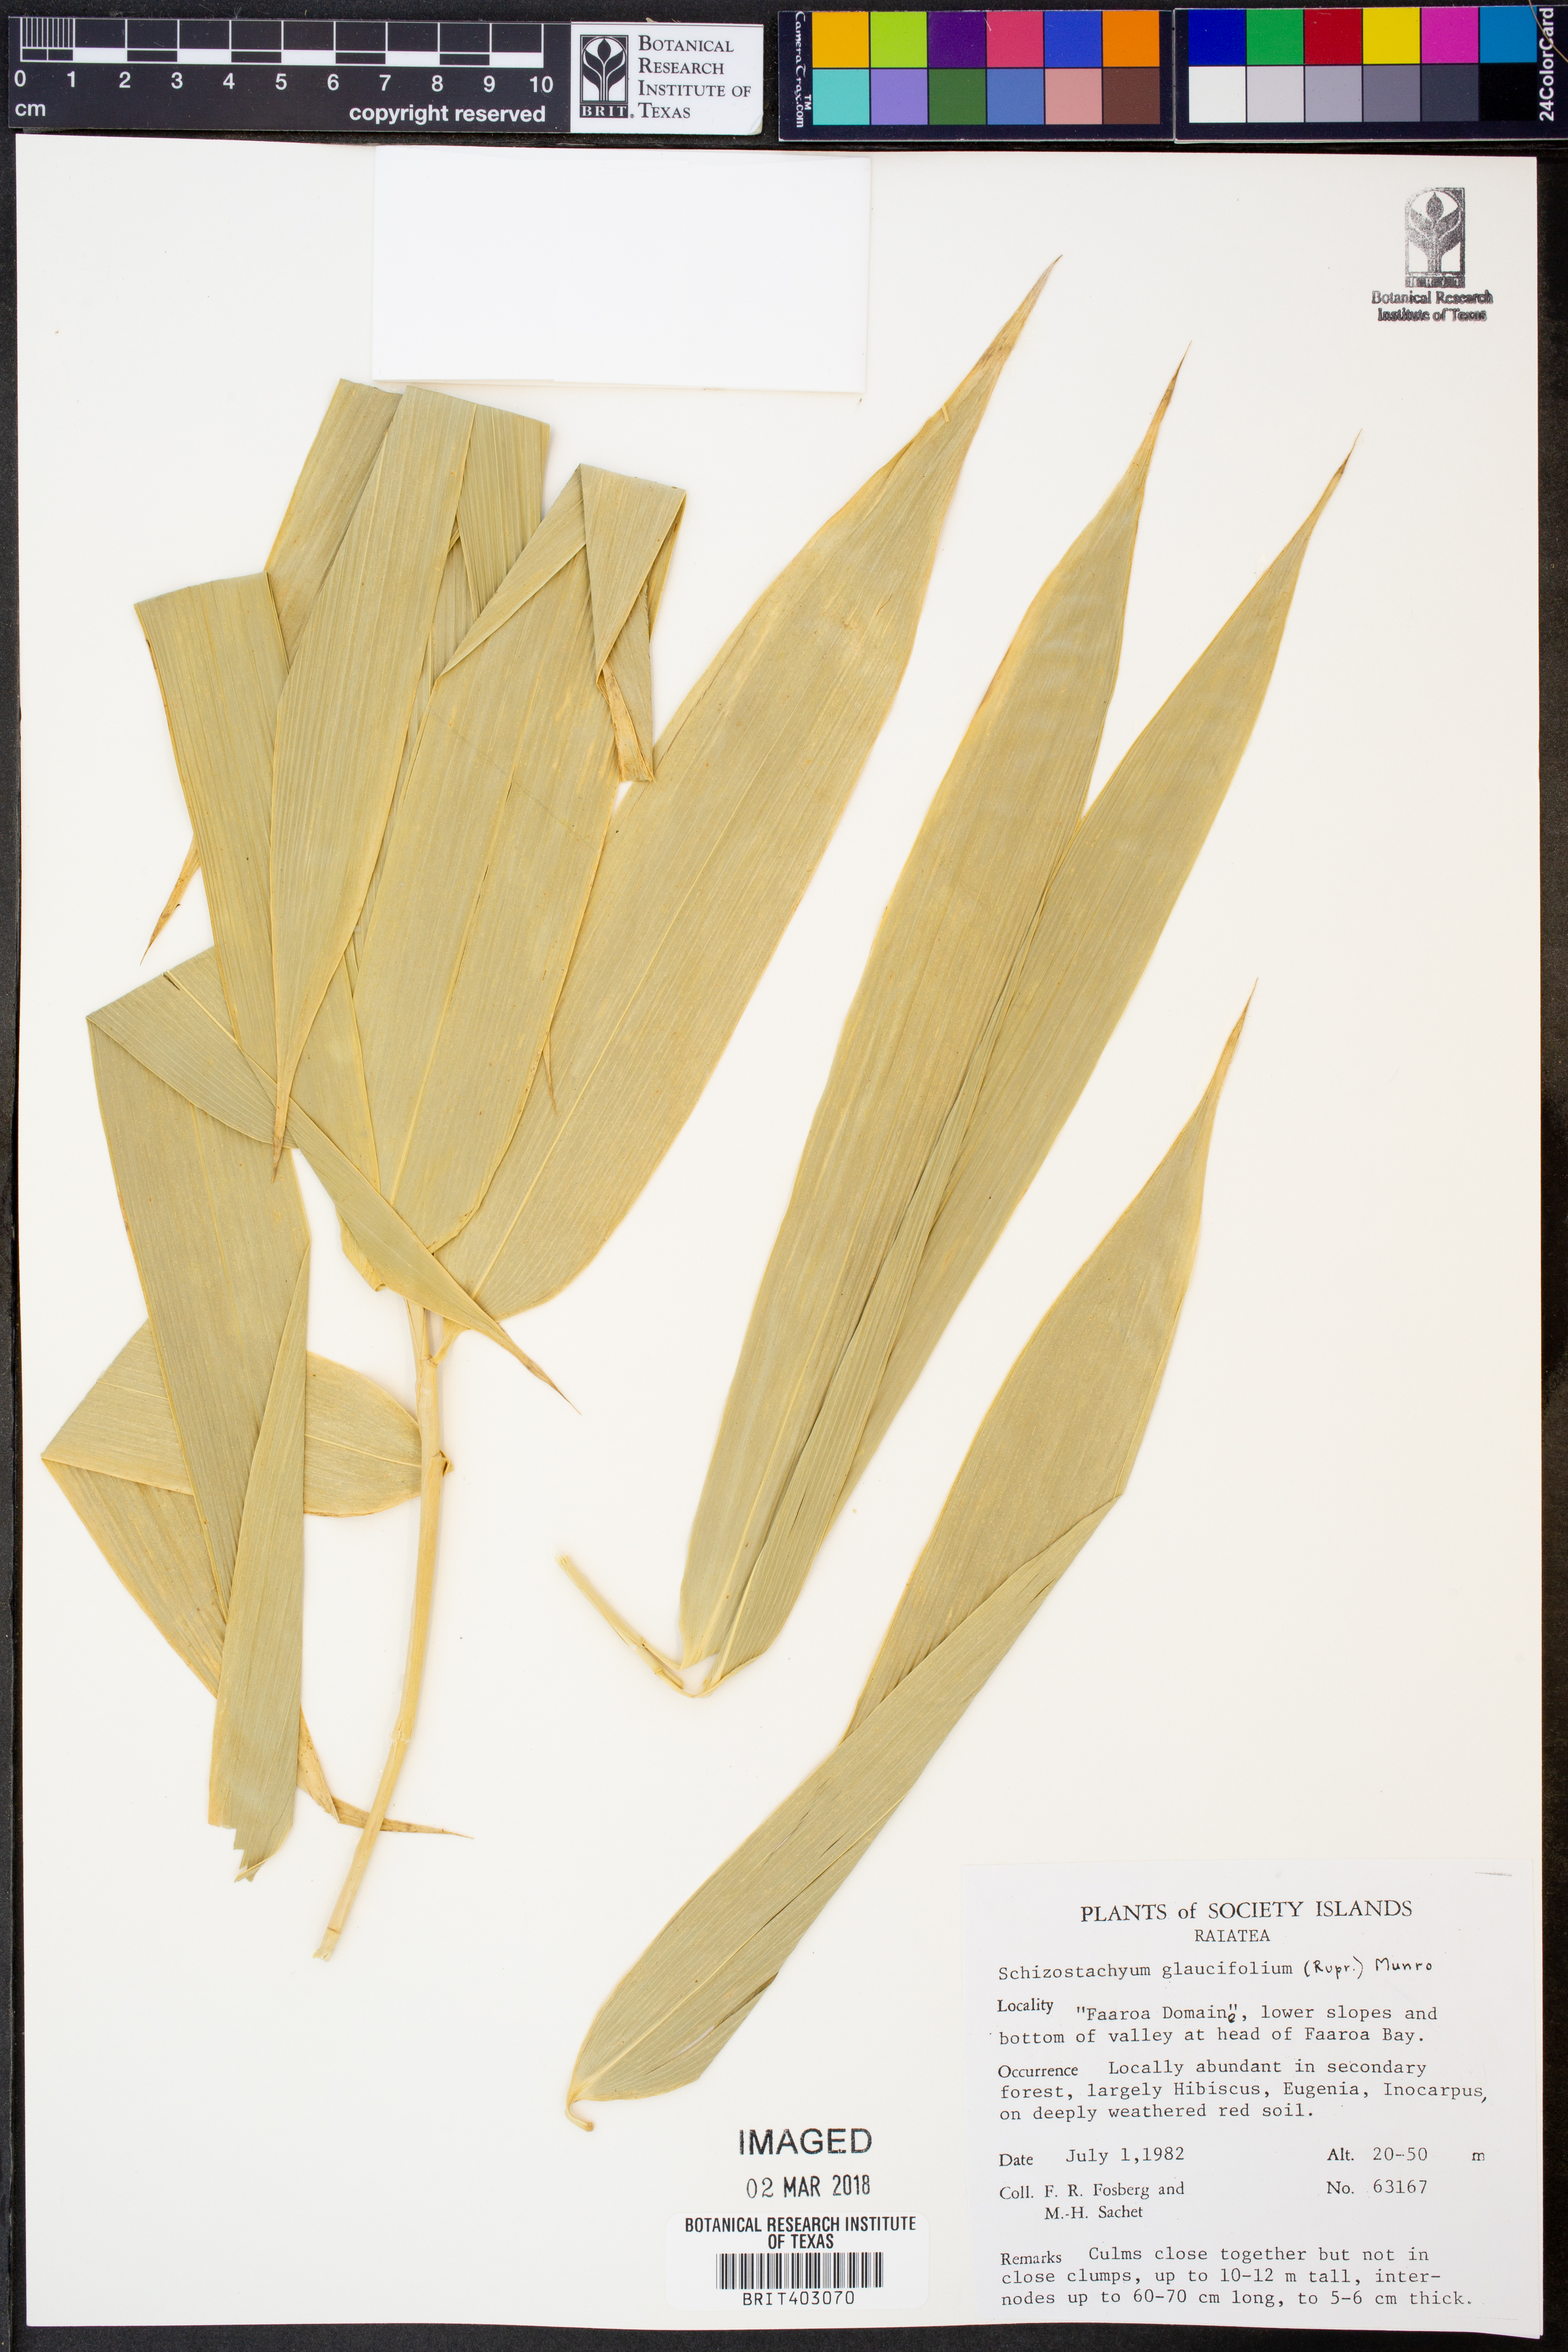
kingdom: Plantae
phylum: Tracheophyta
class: Liliopsida
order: Poales
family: Poaceae
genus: Schizostachyum
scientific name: Schizostachyum glaucifolium
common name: Polynesian 'ohe
